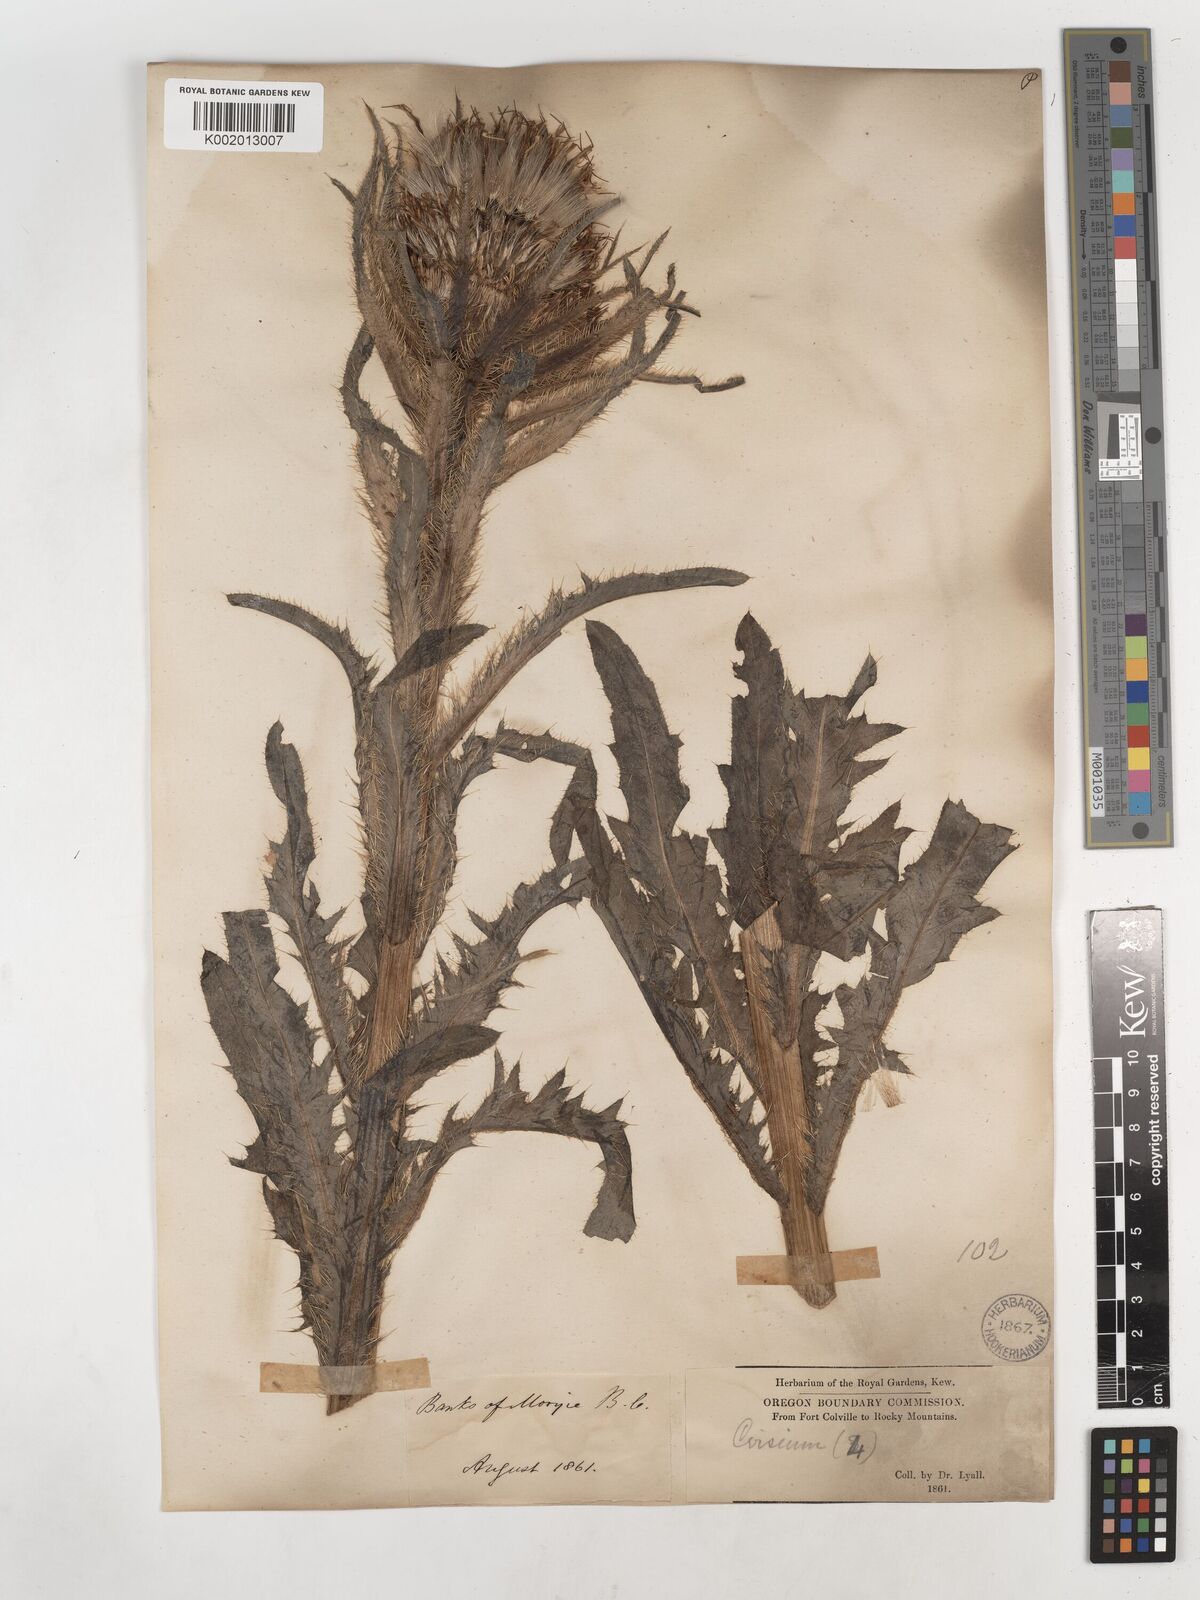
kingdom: Plantae
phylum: Tracheophyta
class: Magnoliopsida
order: Asterales
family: Asteraceae
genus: Cirsium
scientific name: Cirsium drummondii
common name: Drummond's thistle
